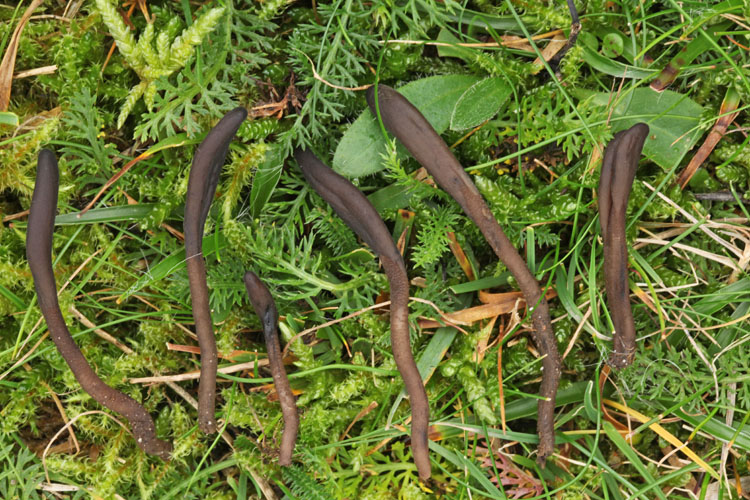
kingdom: Fungi
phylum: Ascomycota
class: Geoglossomycetes
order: Geoglossales
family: Geoglossaceae
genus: Hemileucoglossum
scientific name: Hemileucoglossum elongatum
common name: småsporet jordtunge
